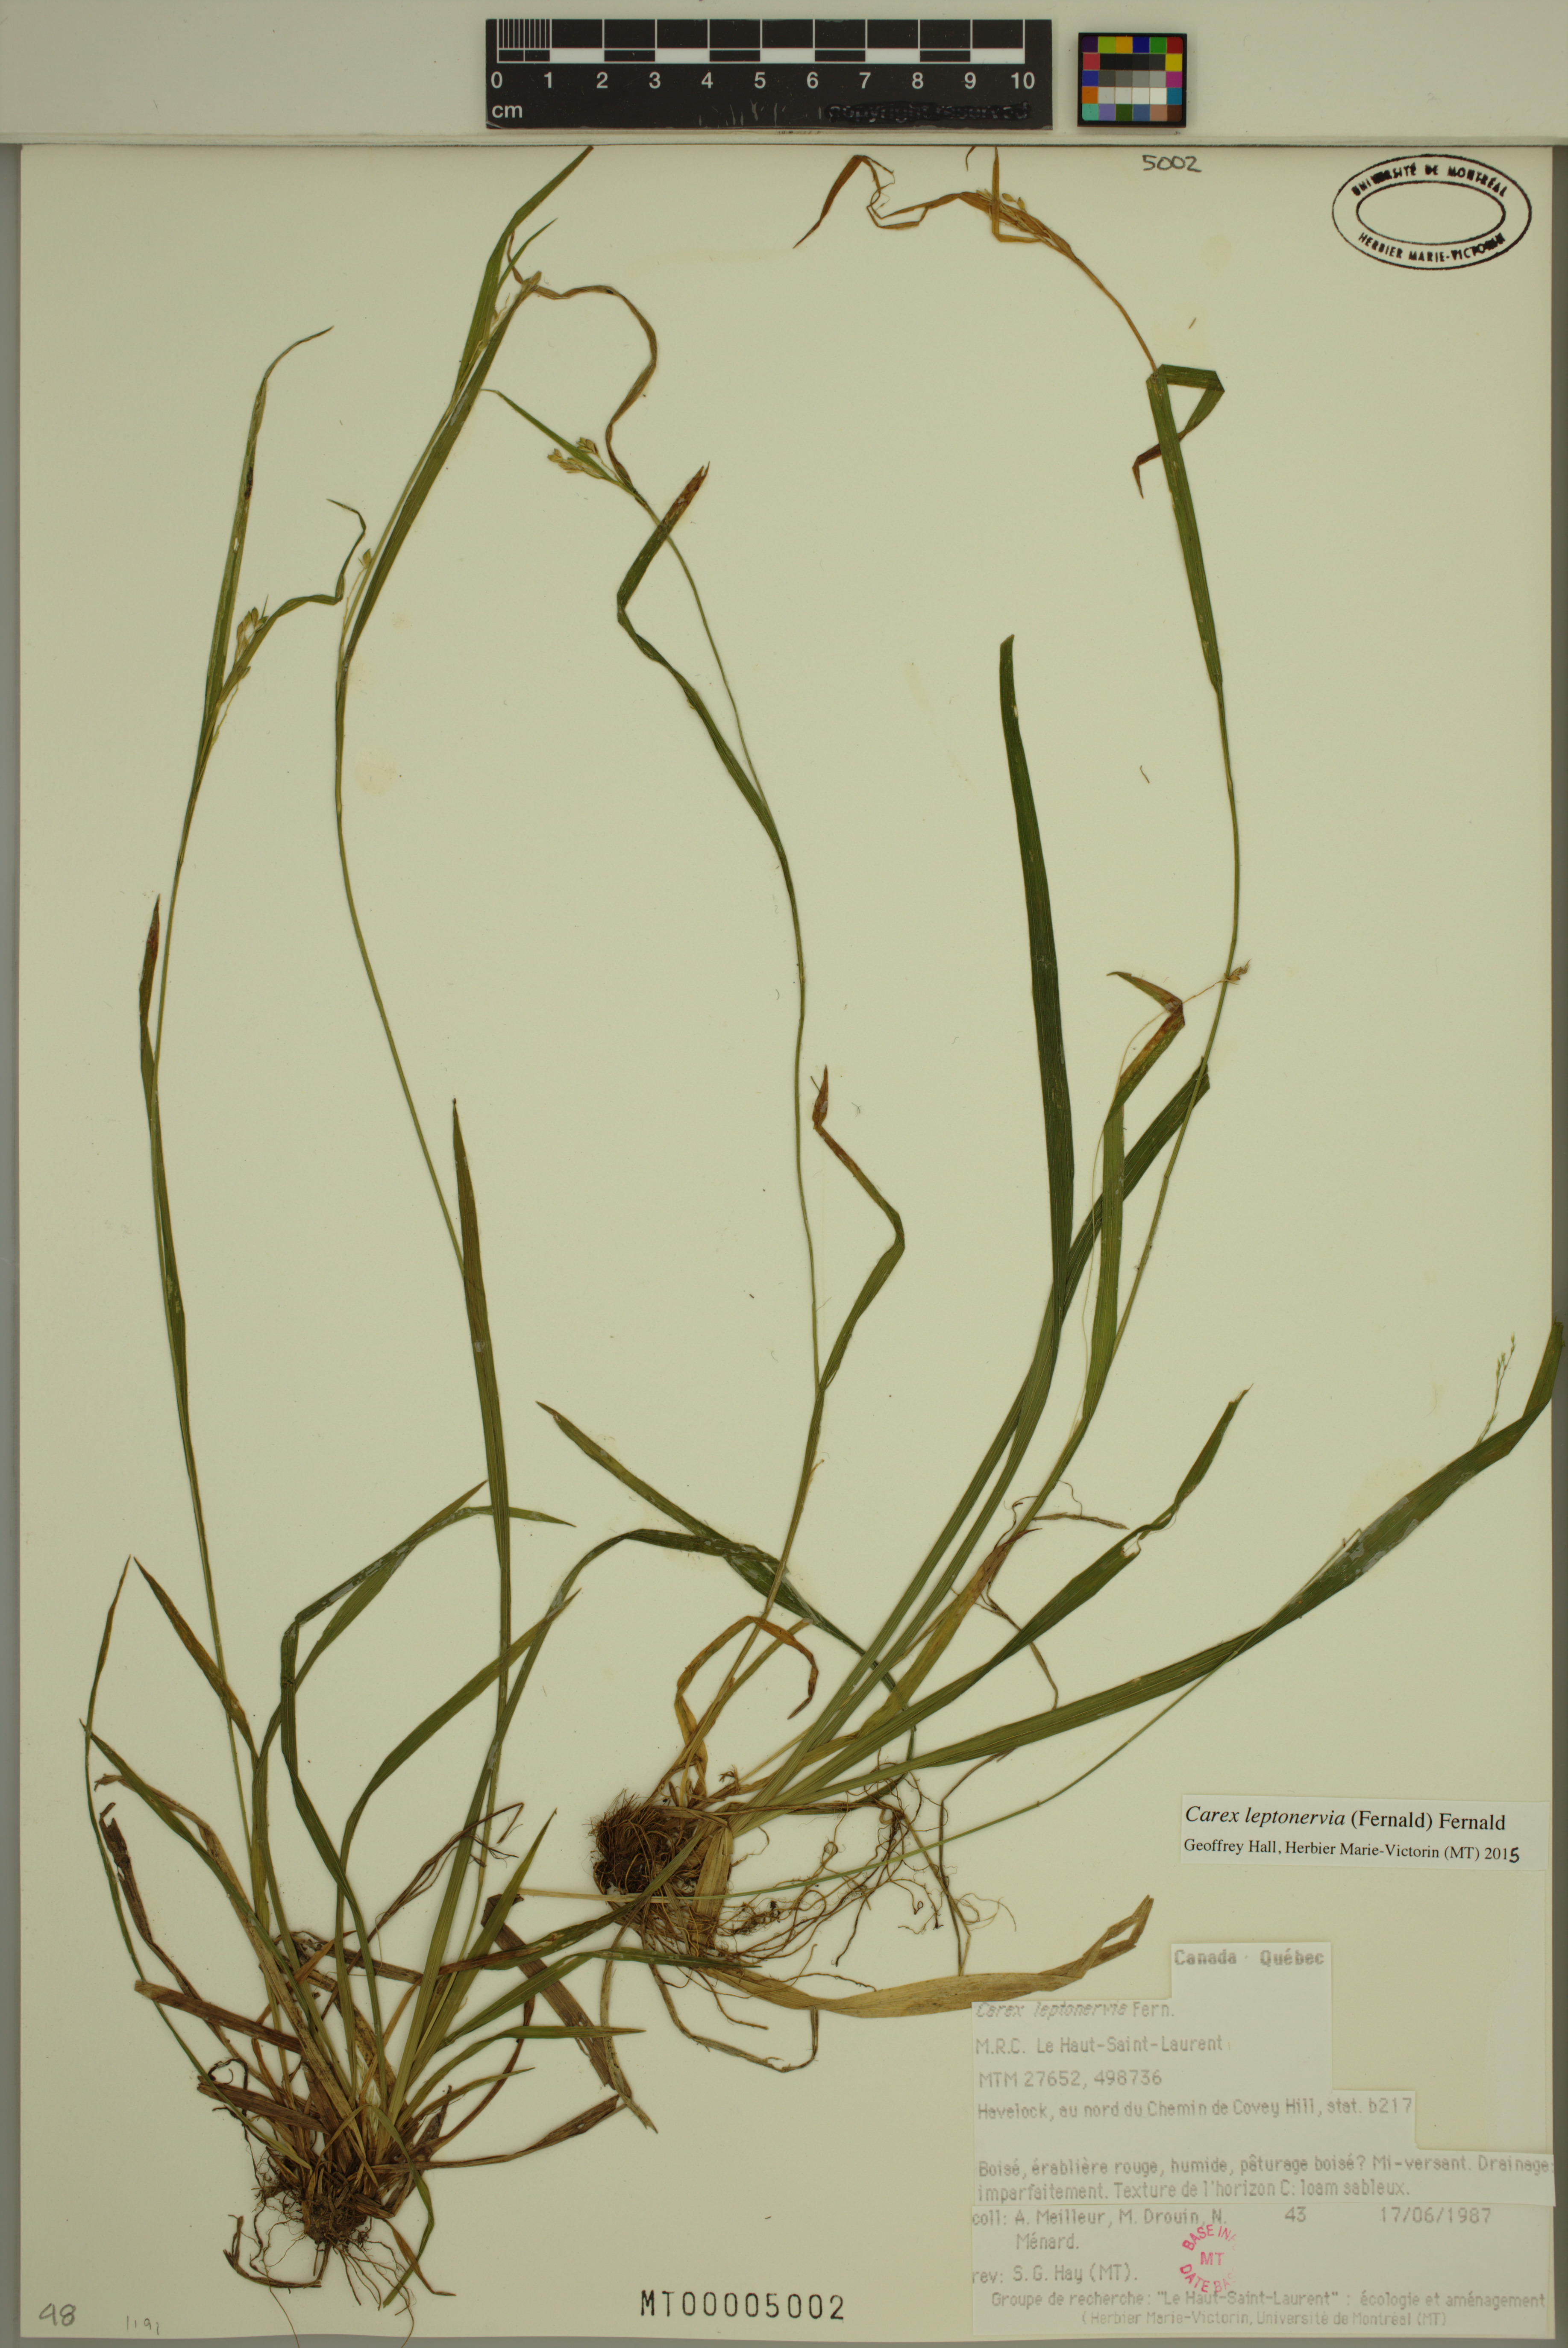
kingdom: Plantae
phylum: Tracheophyta
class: Liliopsida
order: Poales
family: Cyperaceae
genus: Carex
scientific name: Carex leptonervia
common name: Few-nerved wood sedge
